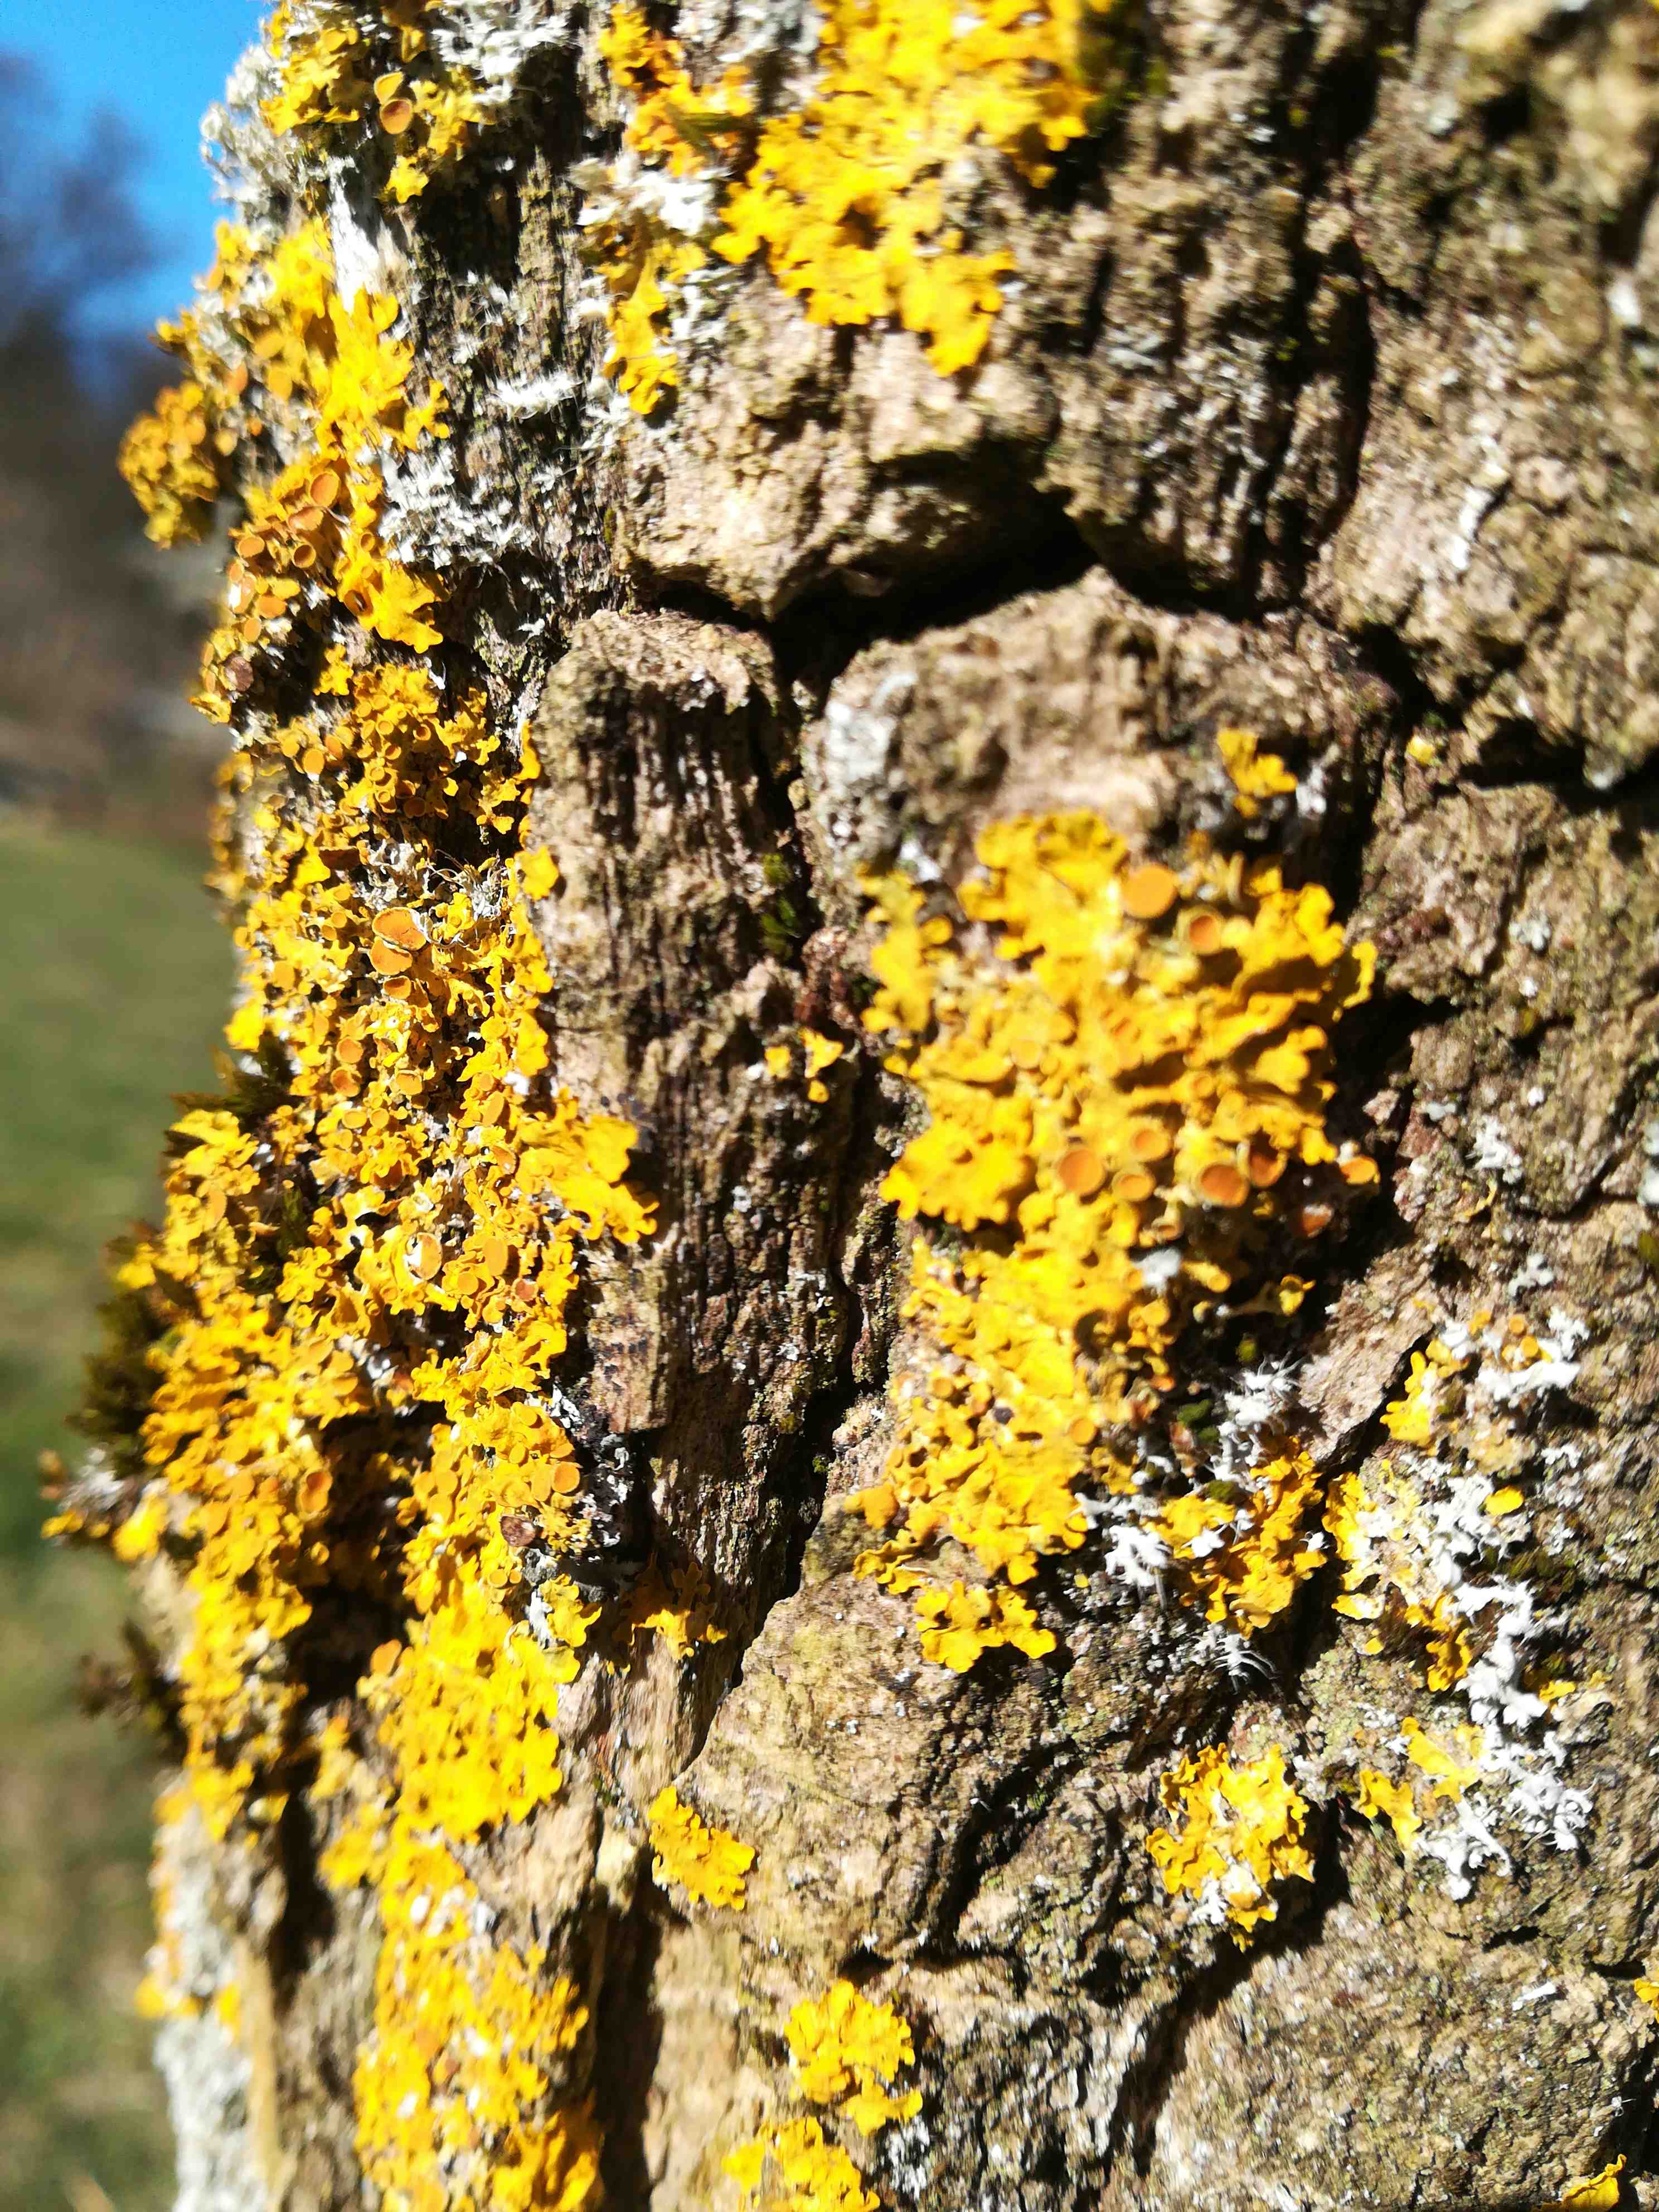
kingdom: Fungi
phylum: Ascomycota
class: Lecanoromycetes
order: Teloschistales
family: Teloschistaceae
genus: Xanthoria
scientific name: Xanthoria parietina
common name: almindelig væggelav
